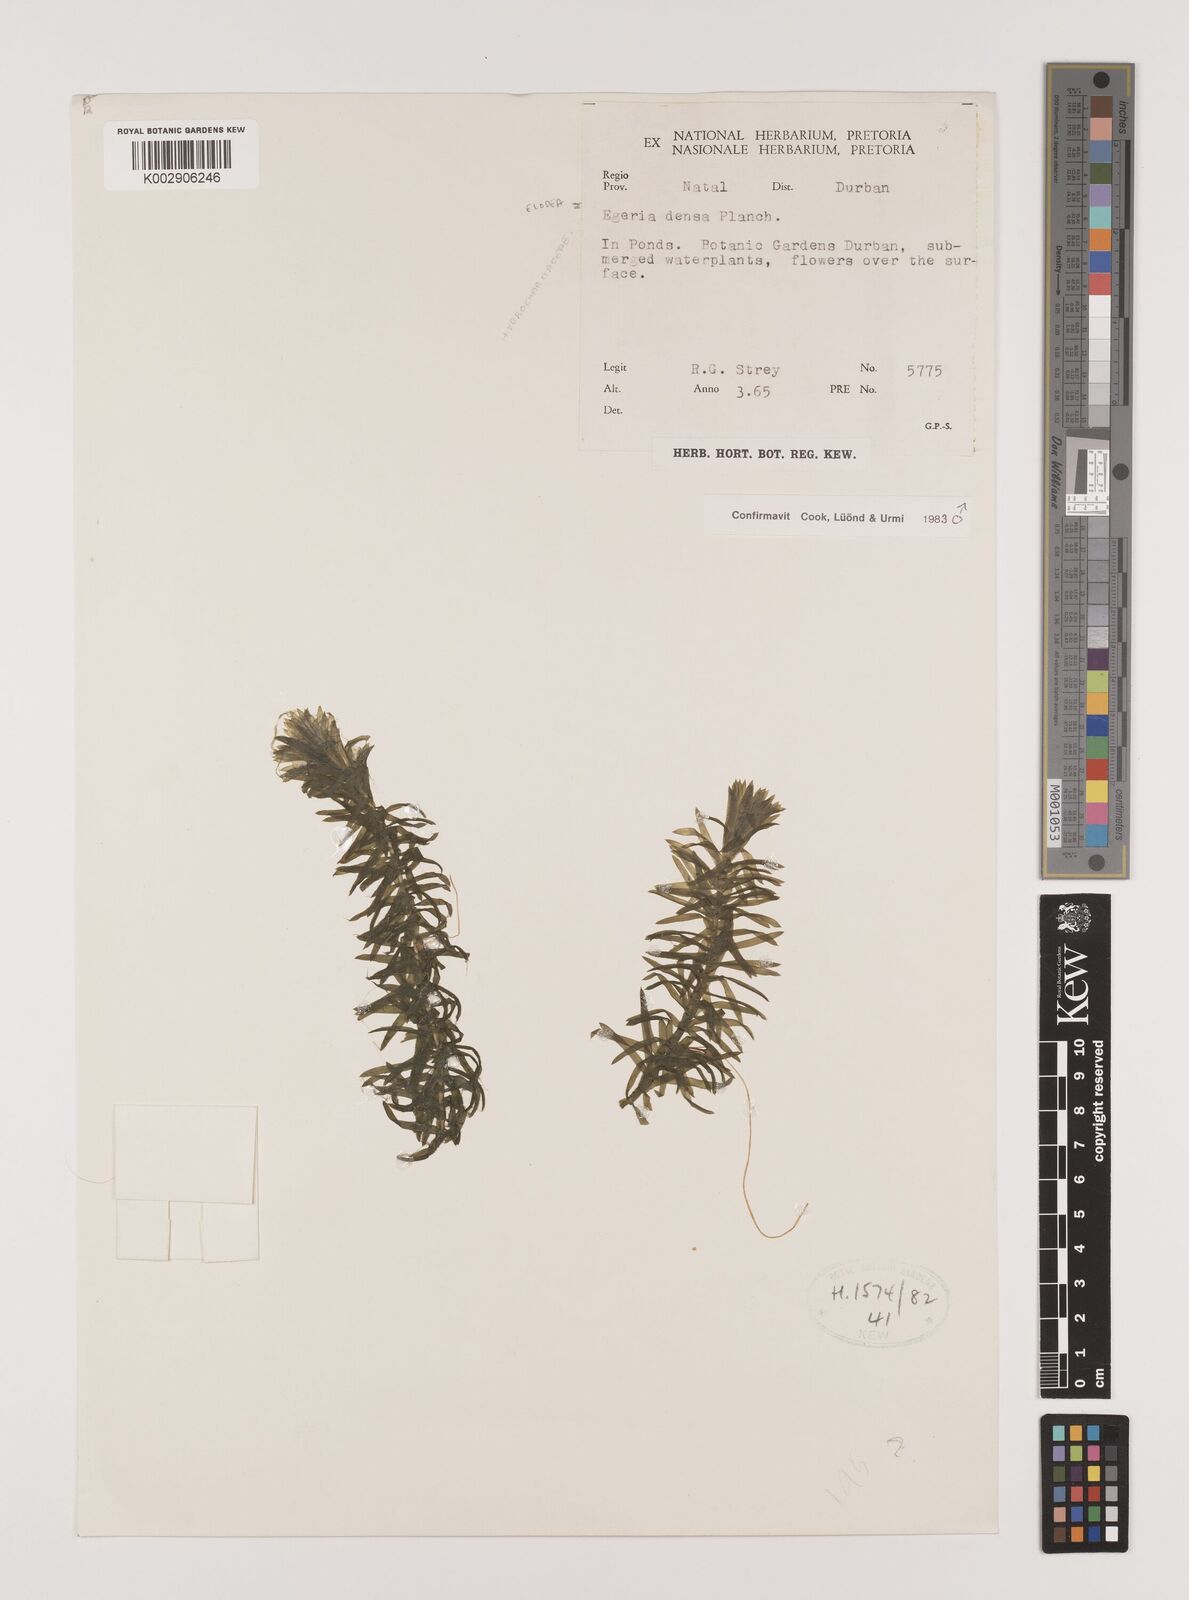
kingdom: Plantae
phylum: Tracheophyta
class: Liliopsida
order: Alismatales
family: Hydrocharitaceae
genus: Elodea
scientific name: Elodea densa
